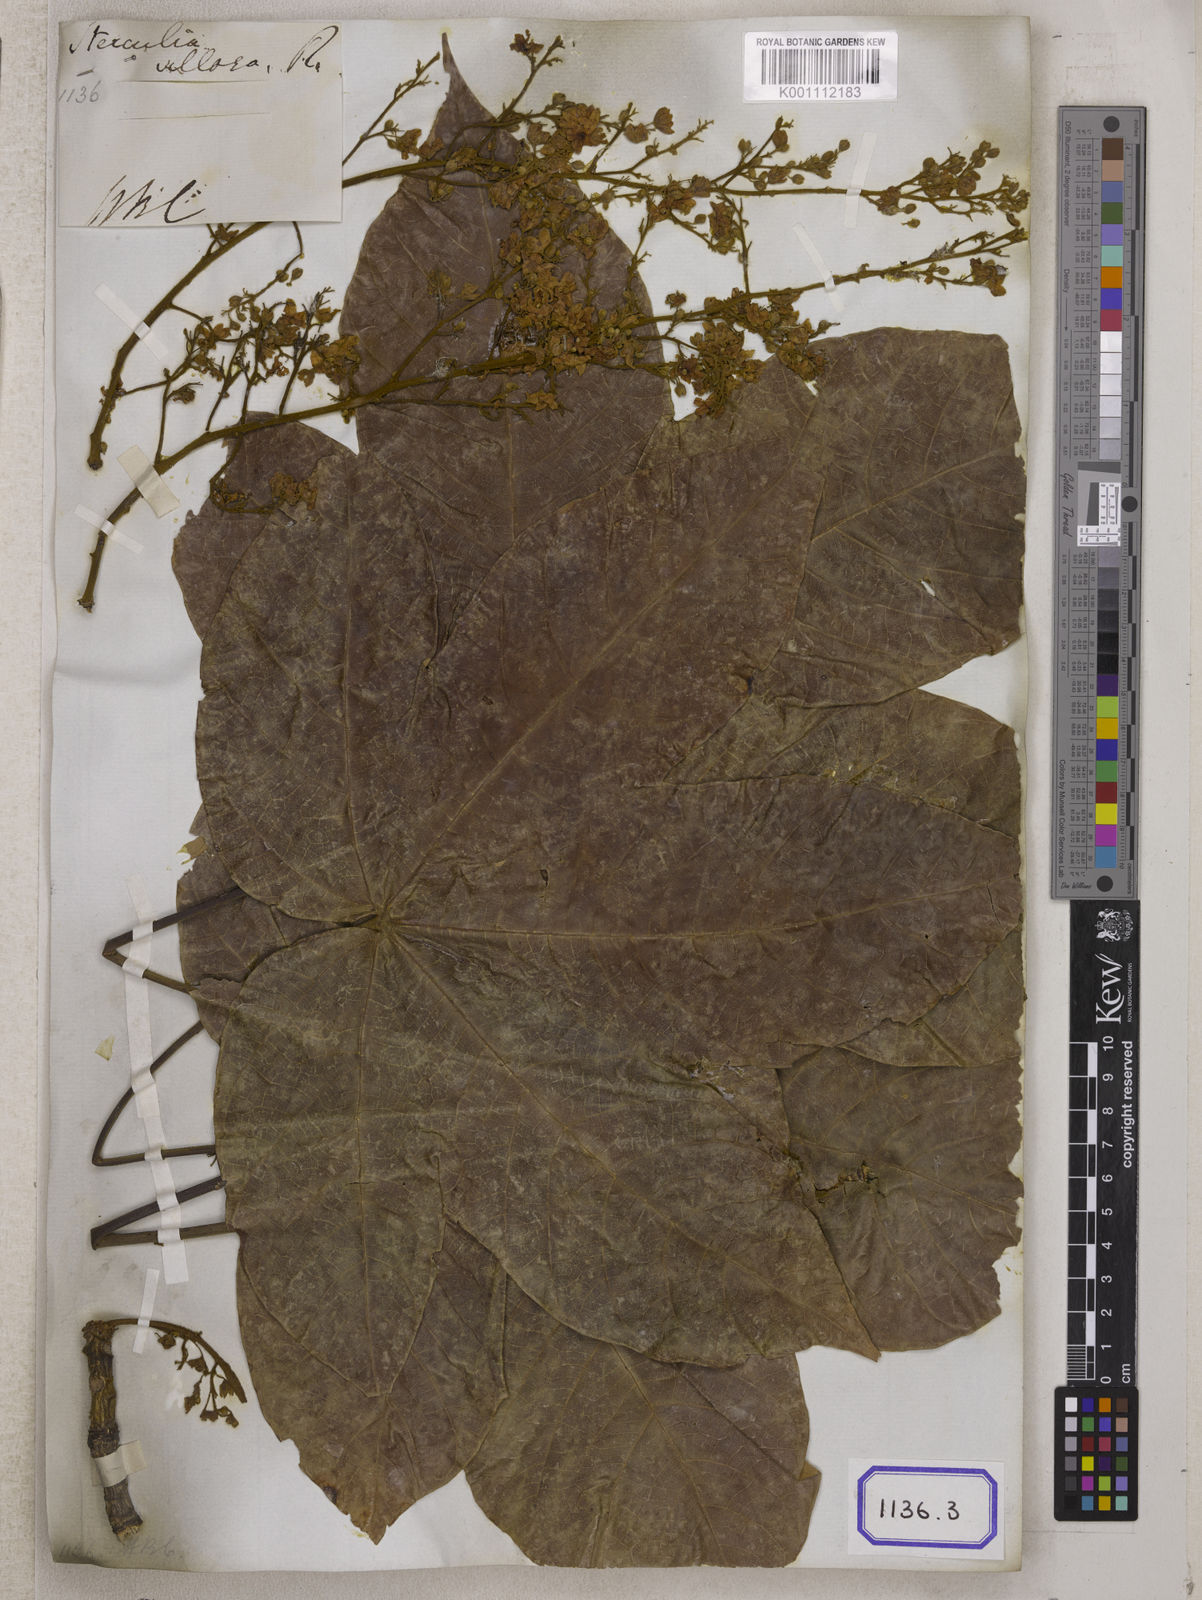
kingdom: Plantae
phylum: Tracheophyta
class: Magnoliopsida
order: Malvales
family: Malvaceae
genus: Sterculia
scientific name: Sterculia
